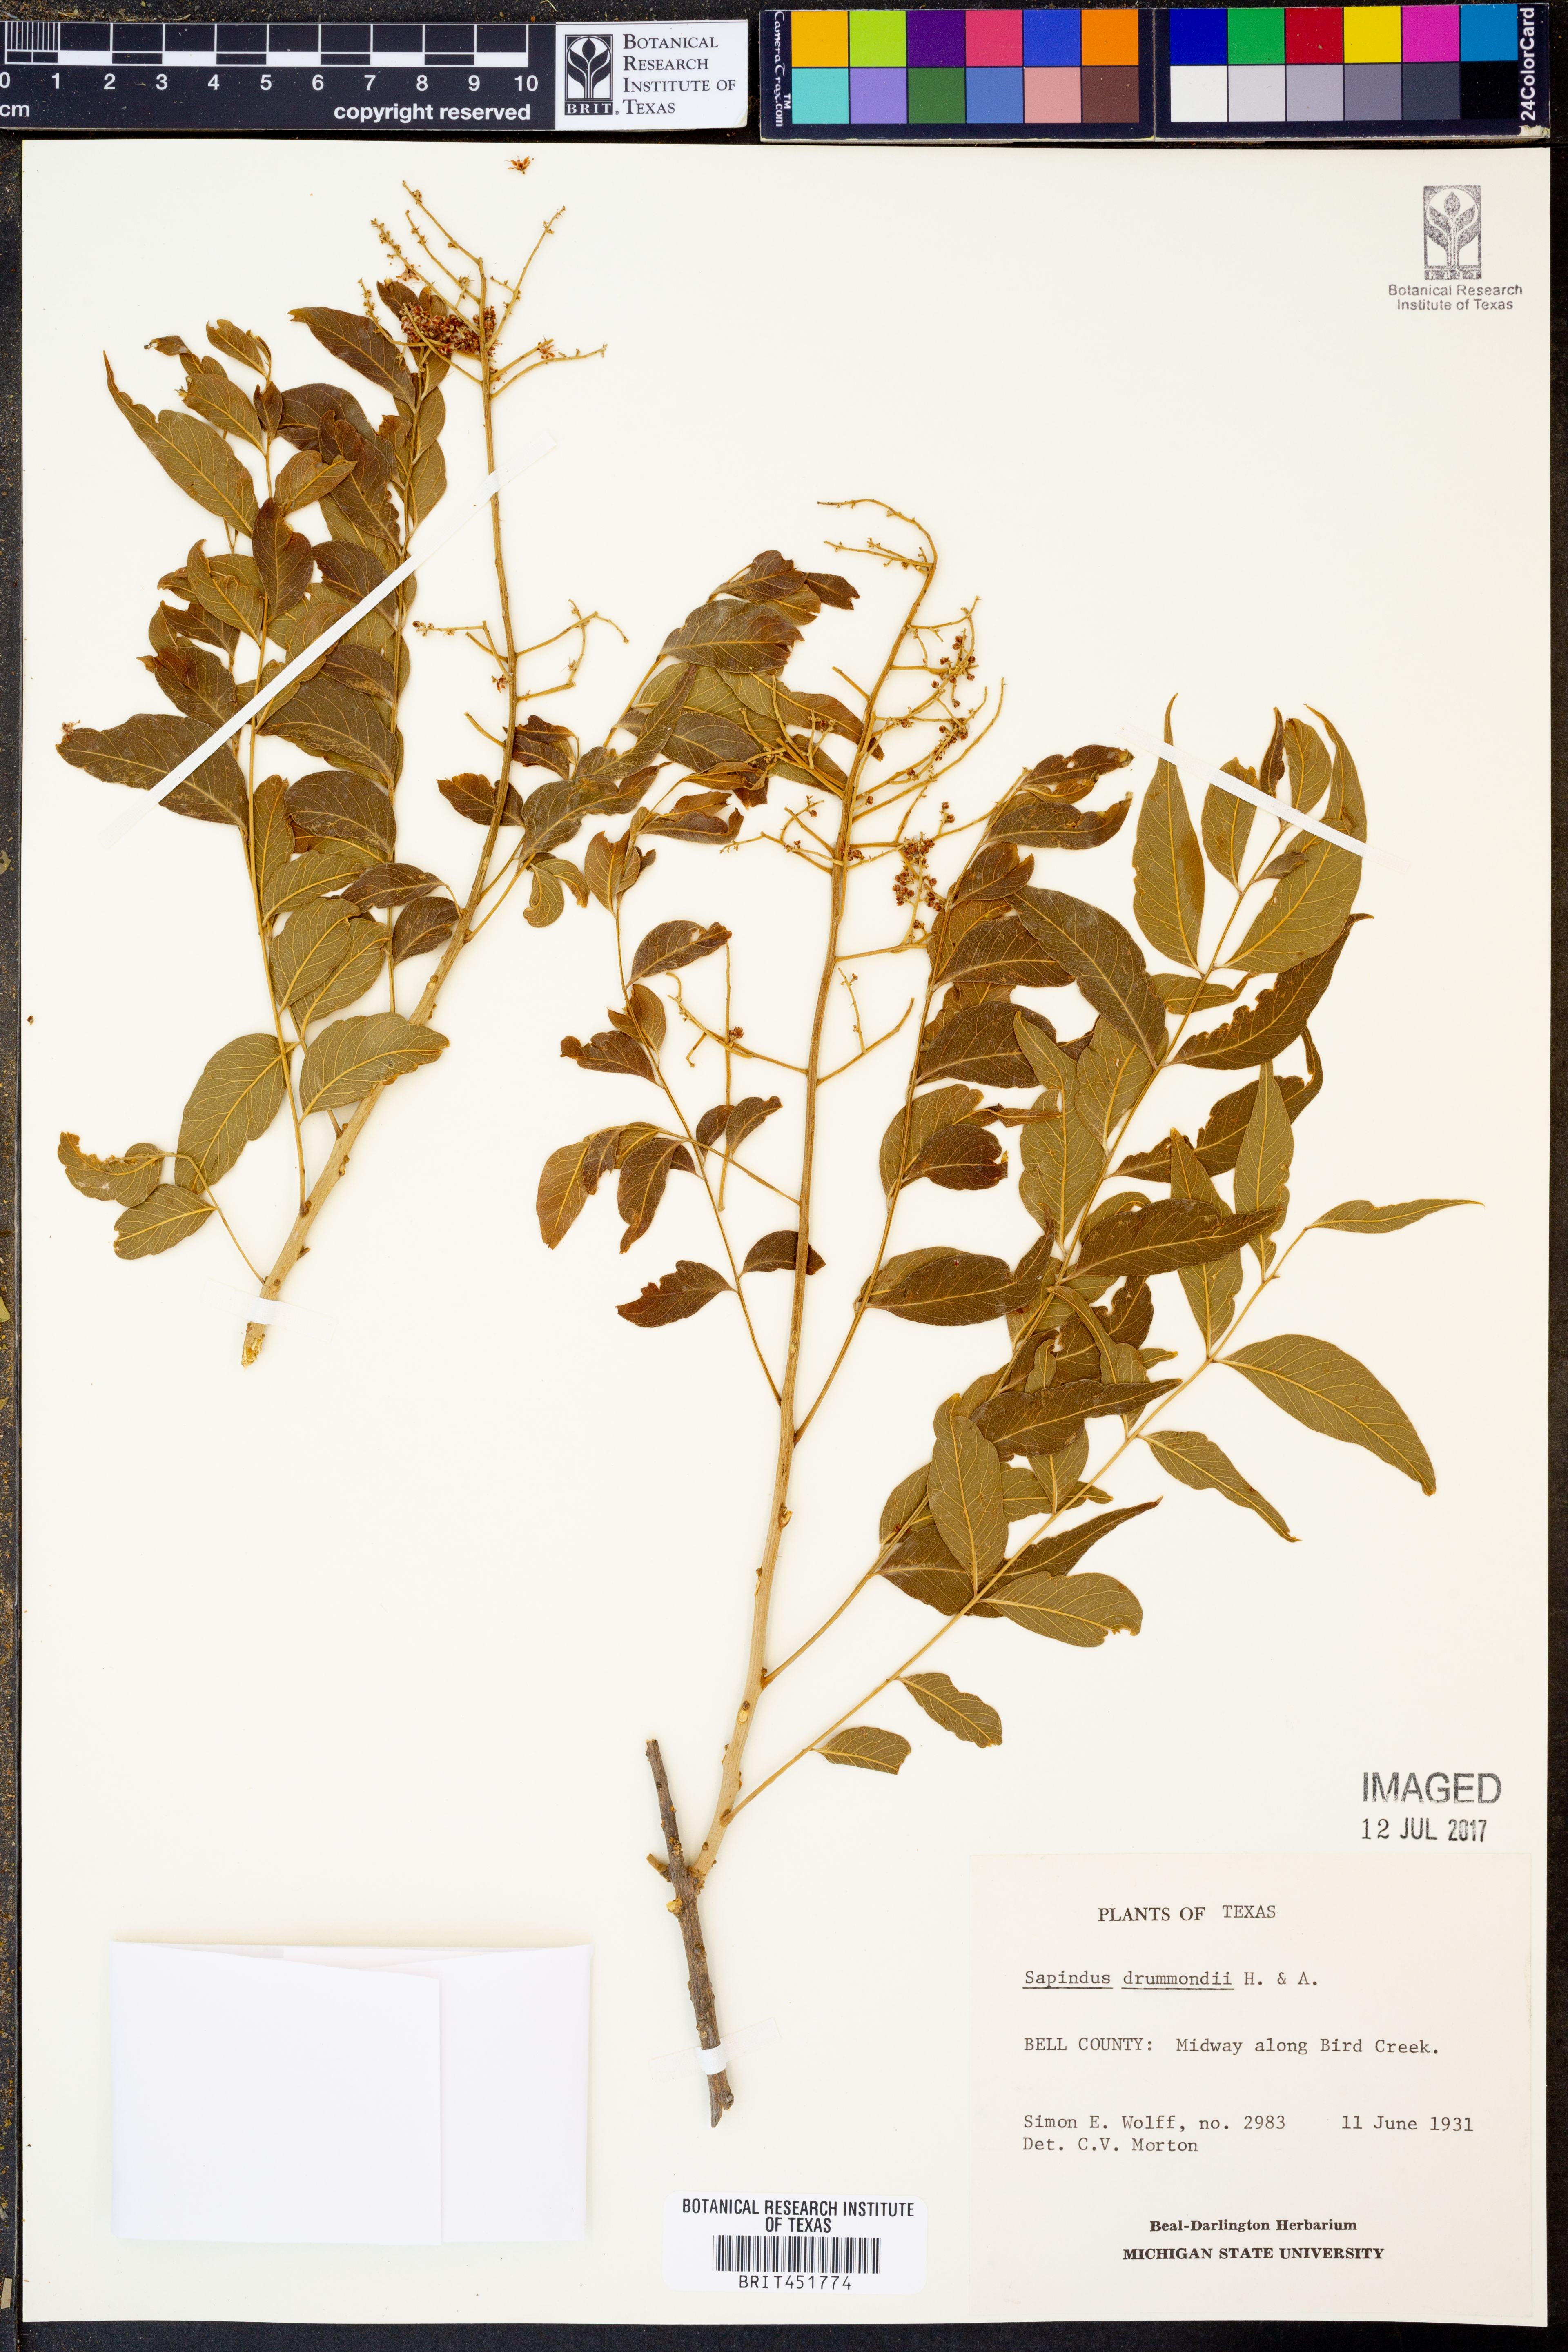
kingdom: Plantae
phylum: Tracheophyta
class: Magnoliopsida
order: Sapindales
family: Sapindaceae
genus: Sapindus
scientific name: Sapindus drummondii
